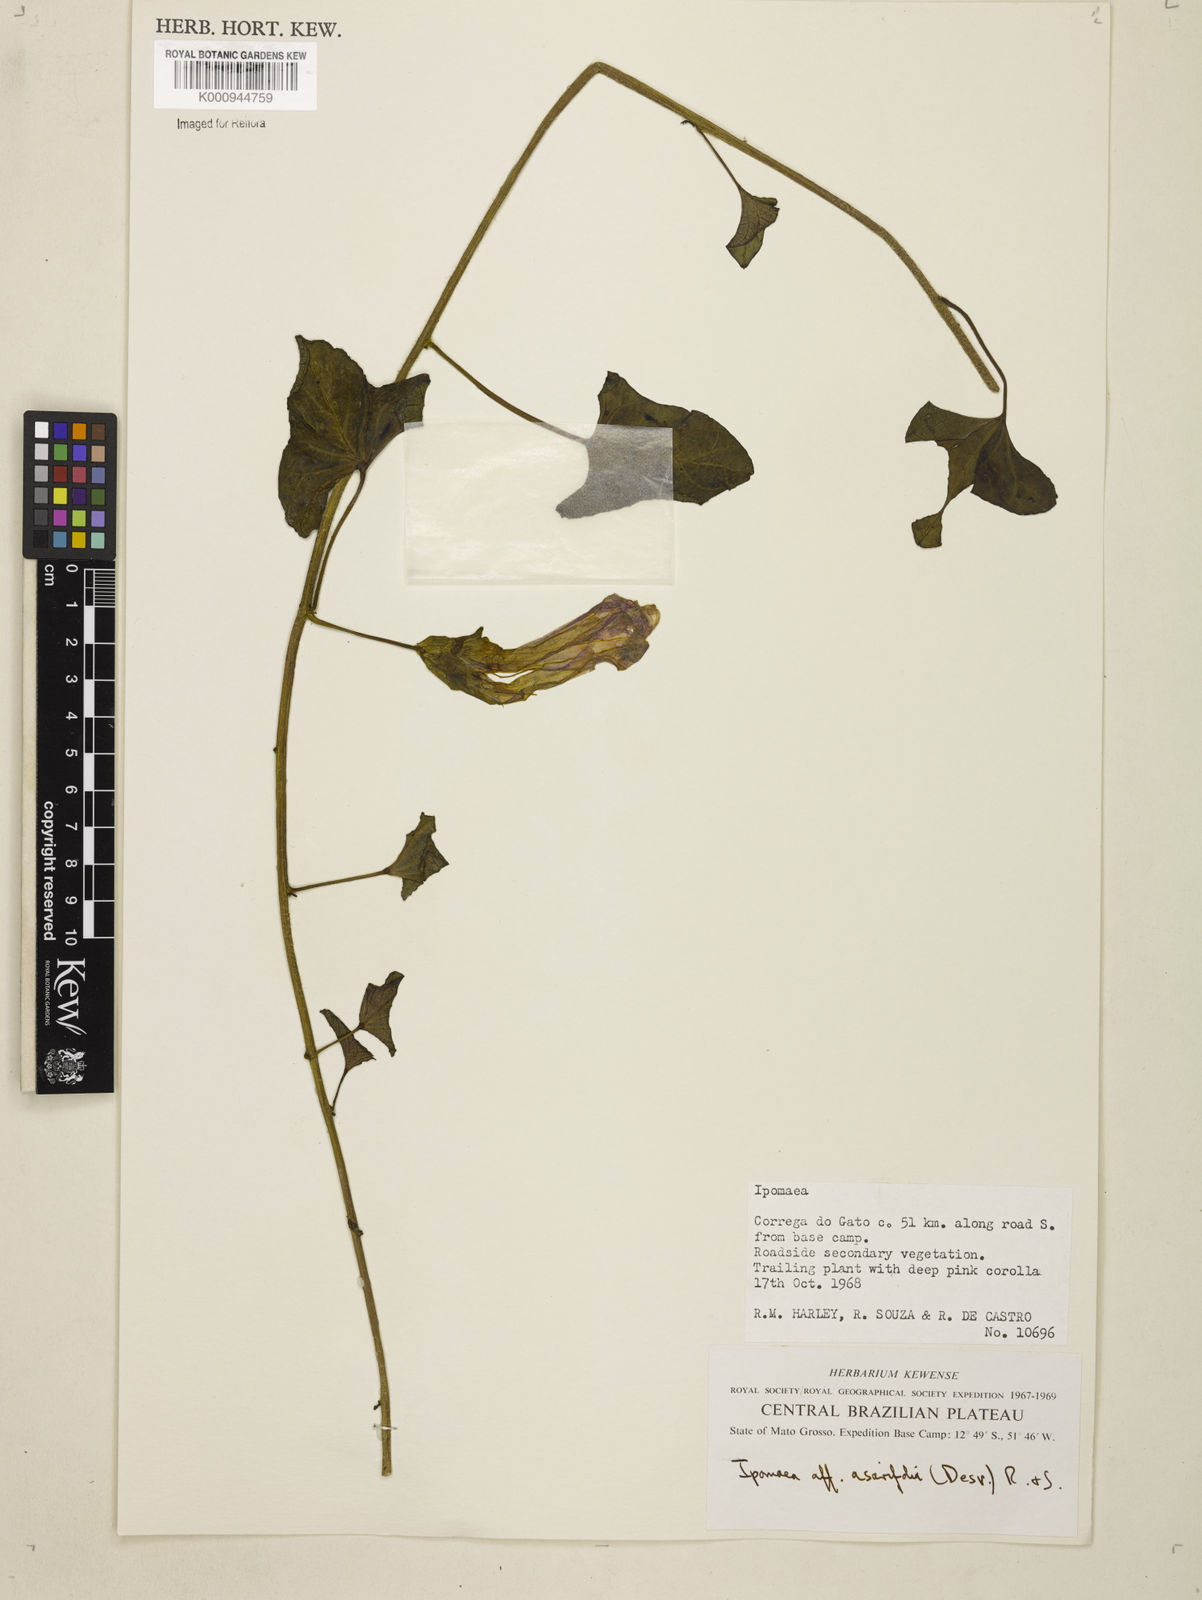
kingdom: Plantae
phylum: Tracheophyta
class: Magnoliopsida
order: Solanales
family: Convolvulaceae
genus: Ipomoea
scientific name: Ipomoea asarifolia
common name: Ginger-leaf morning-glory
